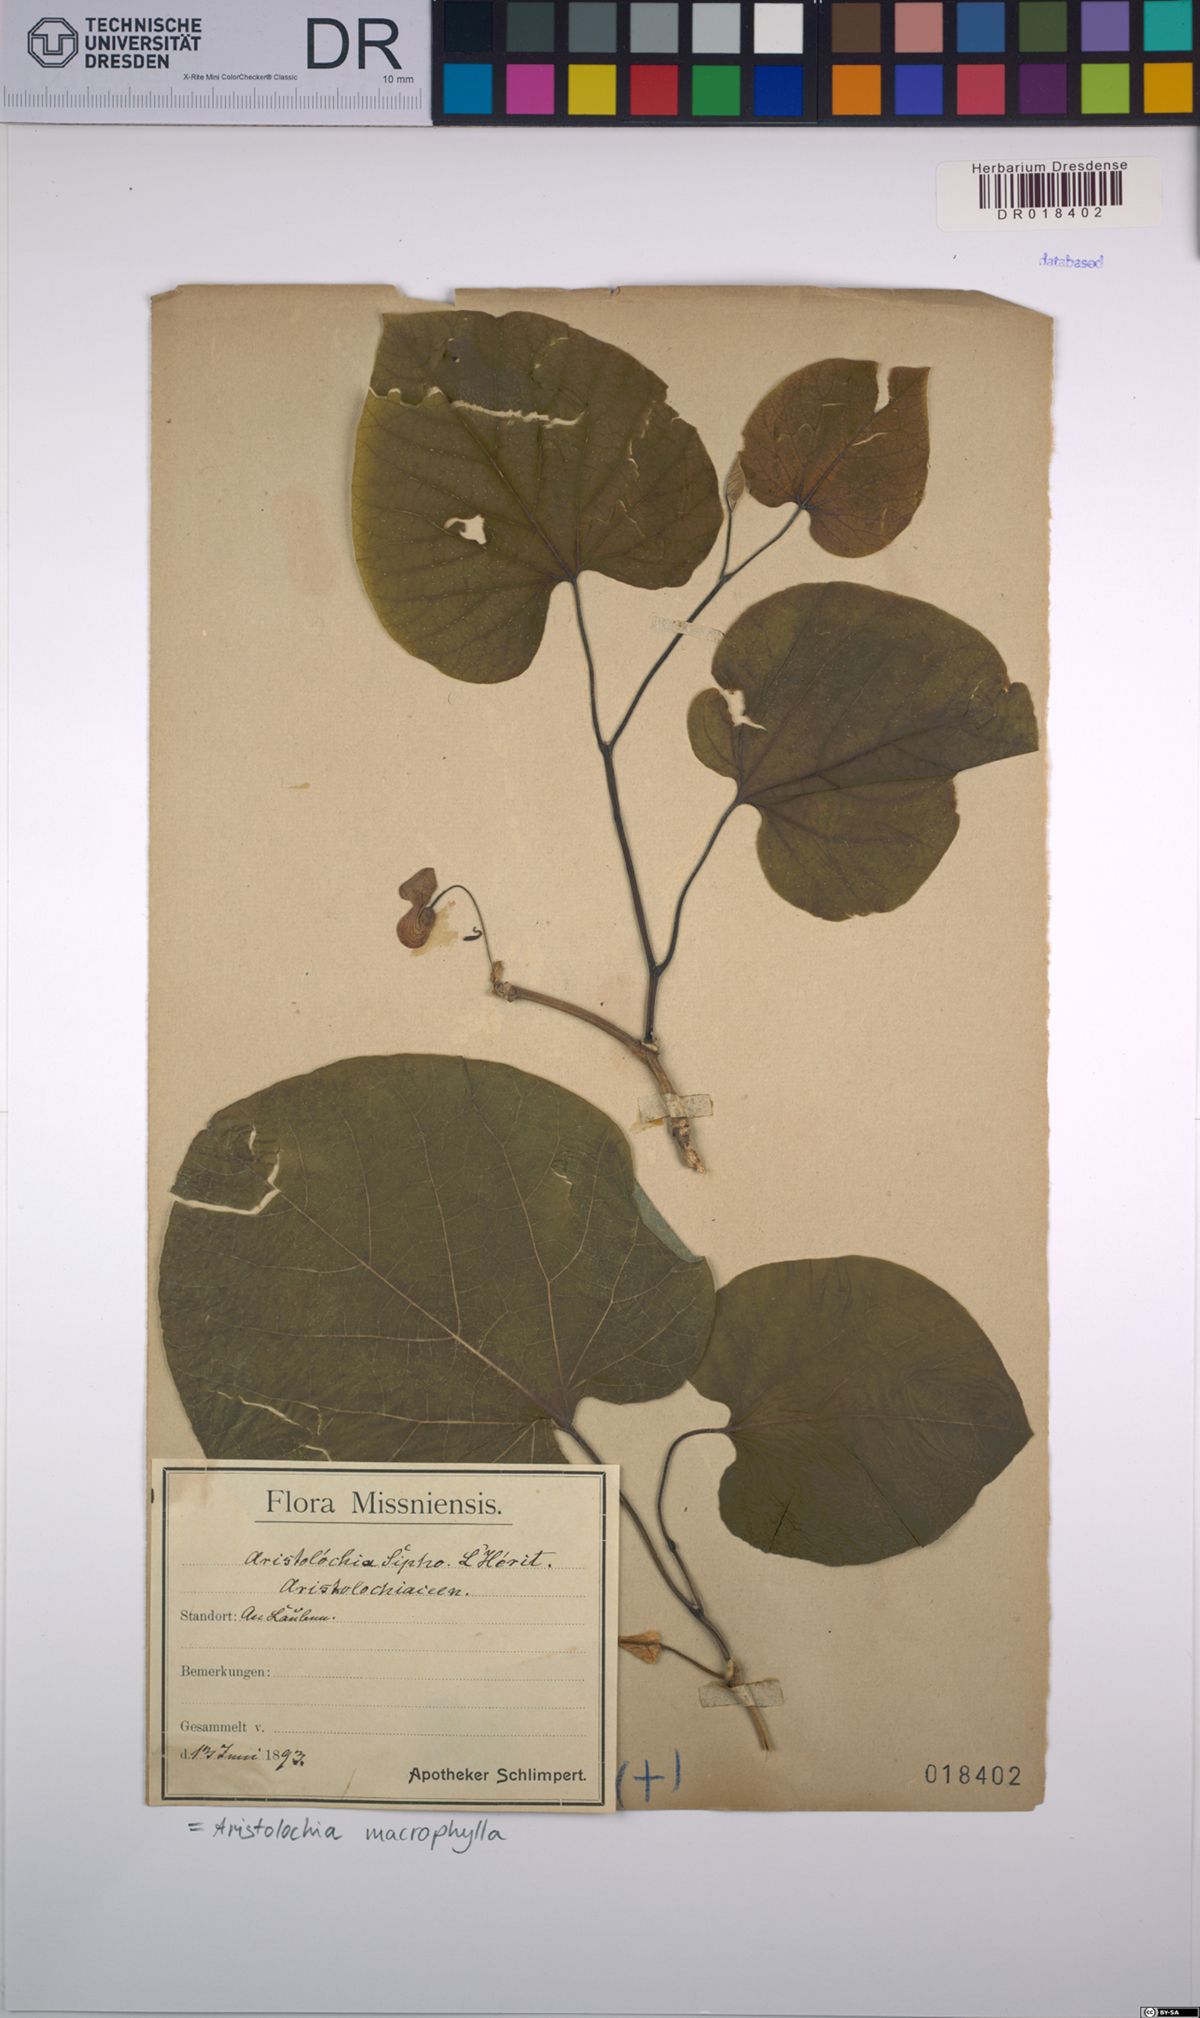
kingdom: Plantae
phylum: Tracheophyta
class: Magnoliopsida
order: Piperales
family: Aristolochiaceae
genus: Isotrema
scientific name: Isotrema macrophyllum
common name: Dutchman's-pipe
